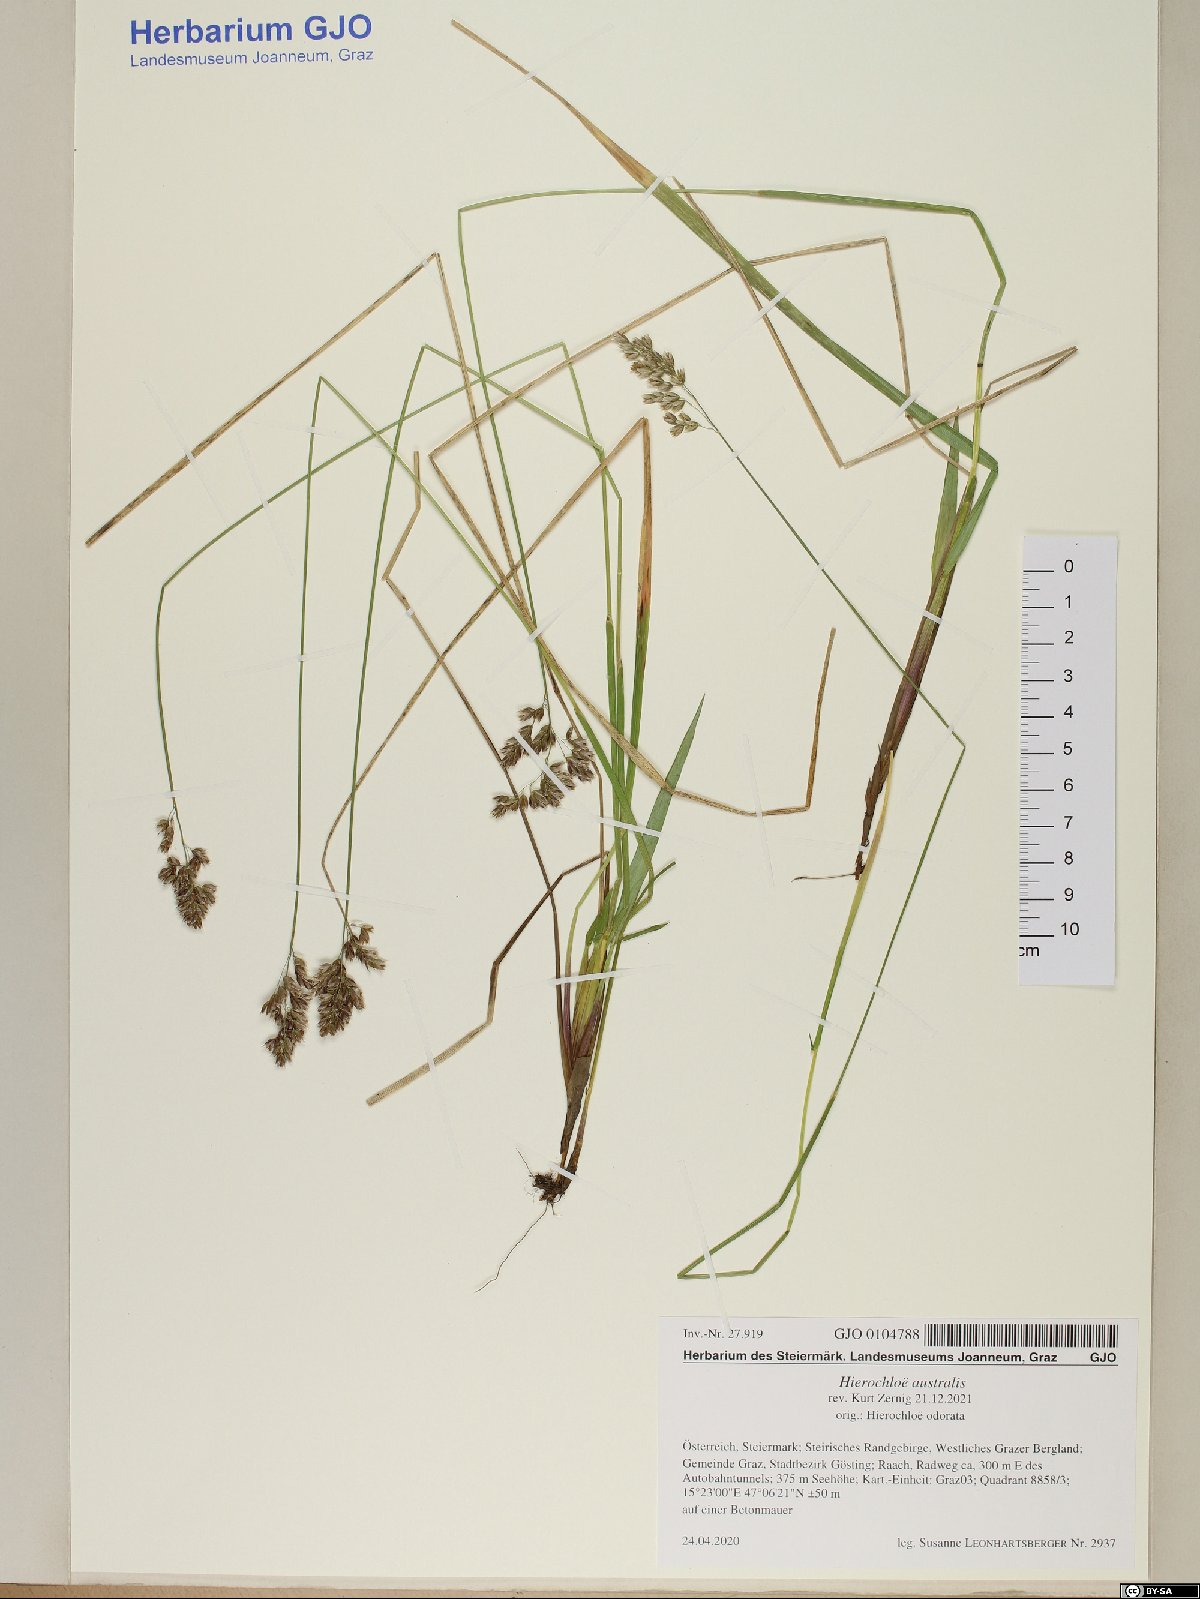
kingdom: Plantae
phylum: Tracheophyta
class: Liliopsida
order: Poales
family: Poaceae
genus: Anthoxanthum
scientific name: Anthoxanthum australe
